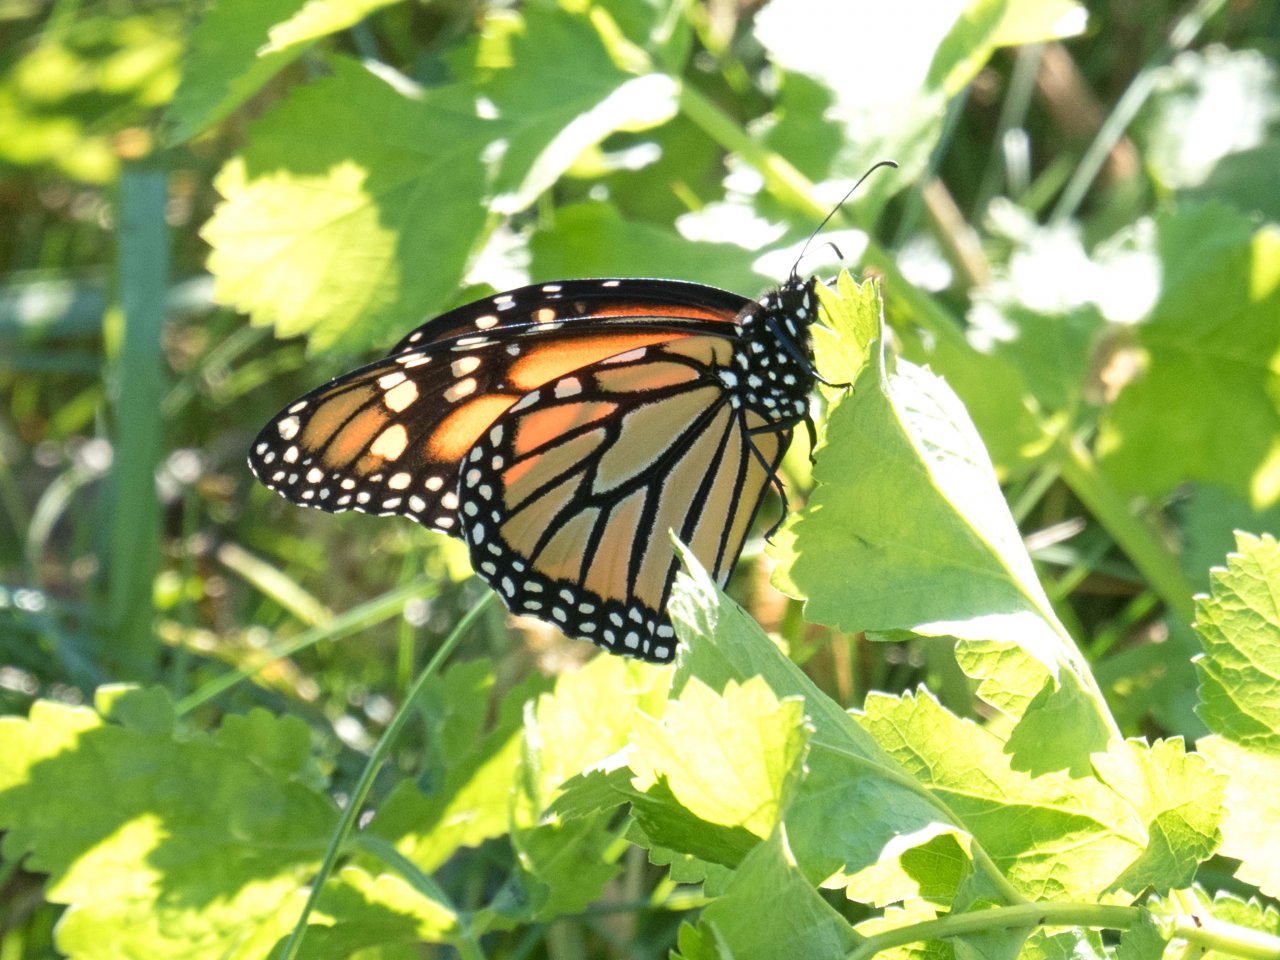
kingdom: Animalia
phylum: Arthropoda
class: Insecta
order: Lepidoptera
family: Nymphalidae
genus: Danaus
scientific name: Danaus plexippus
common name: Monarch
